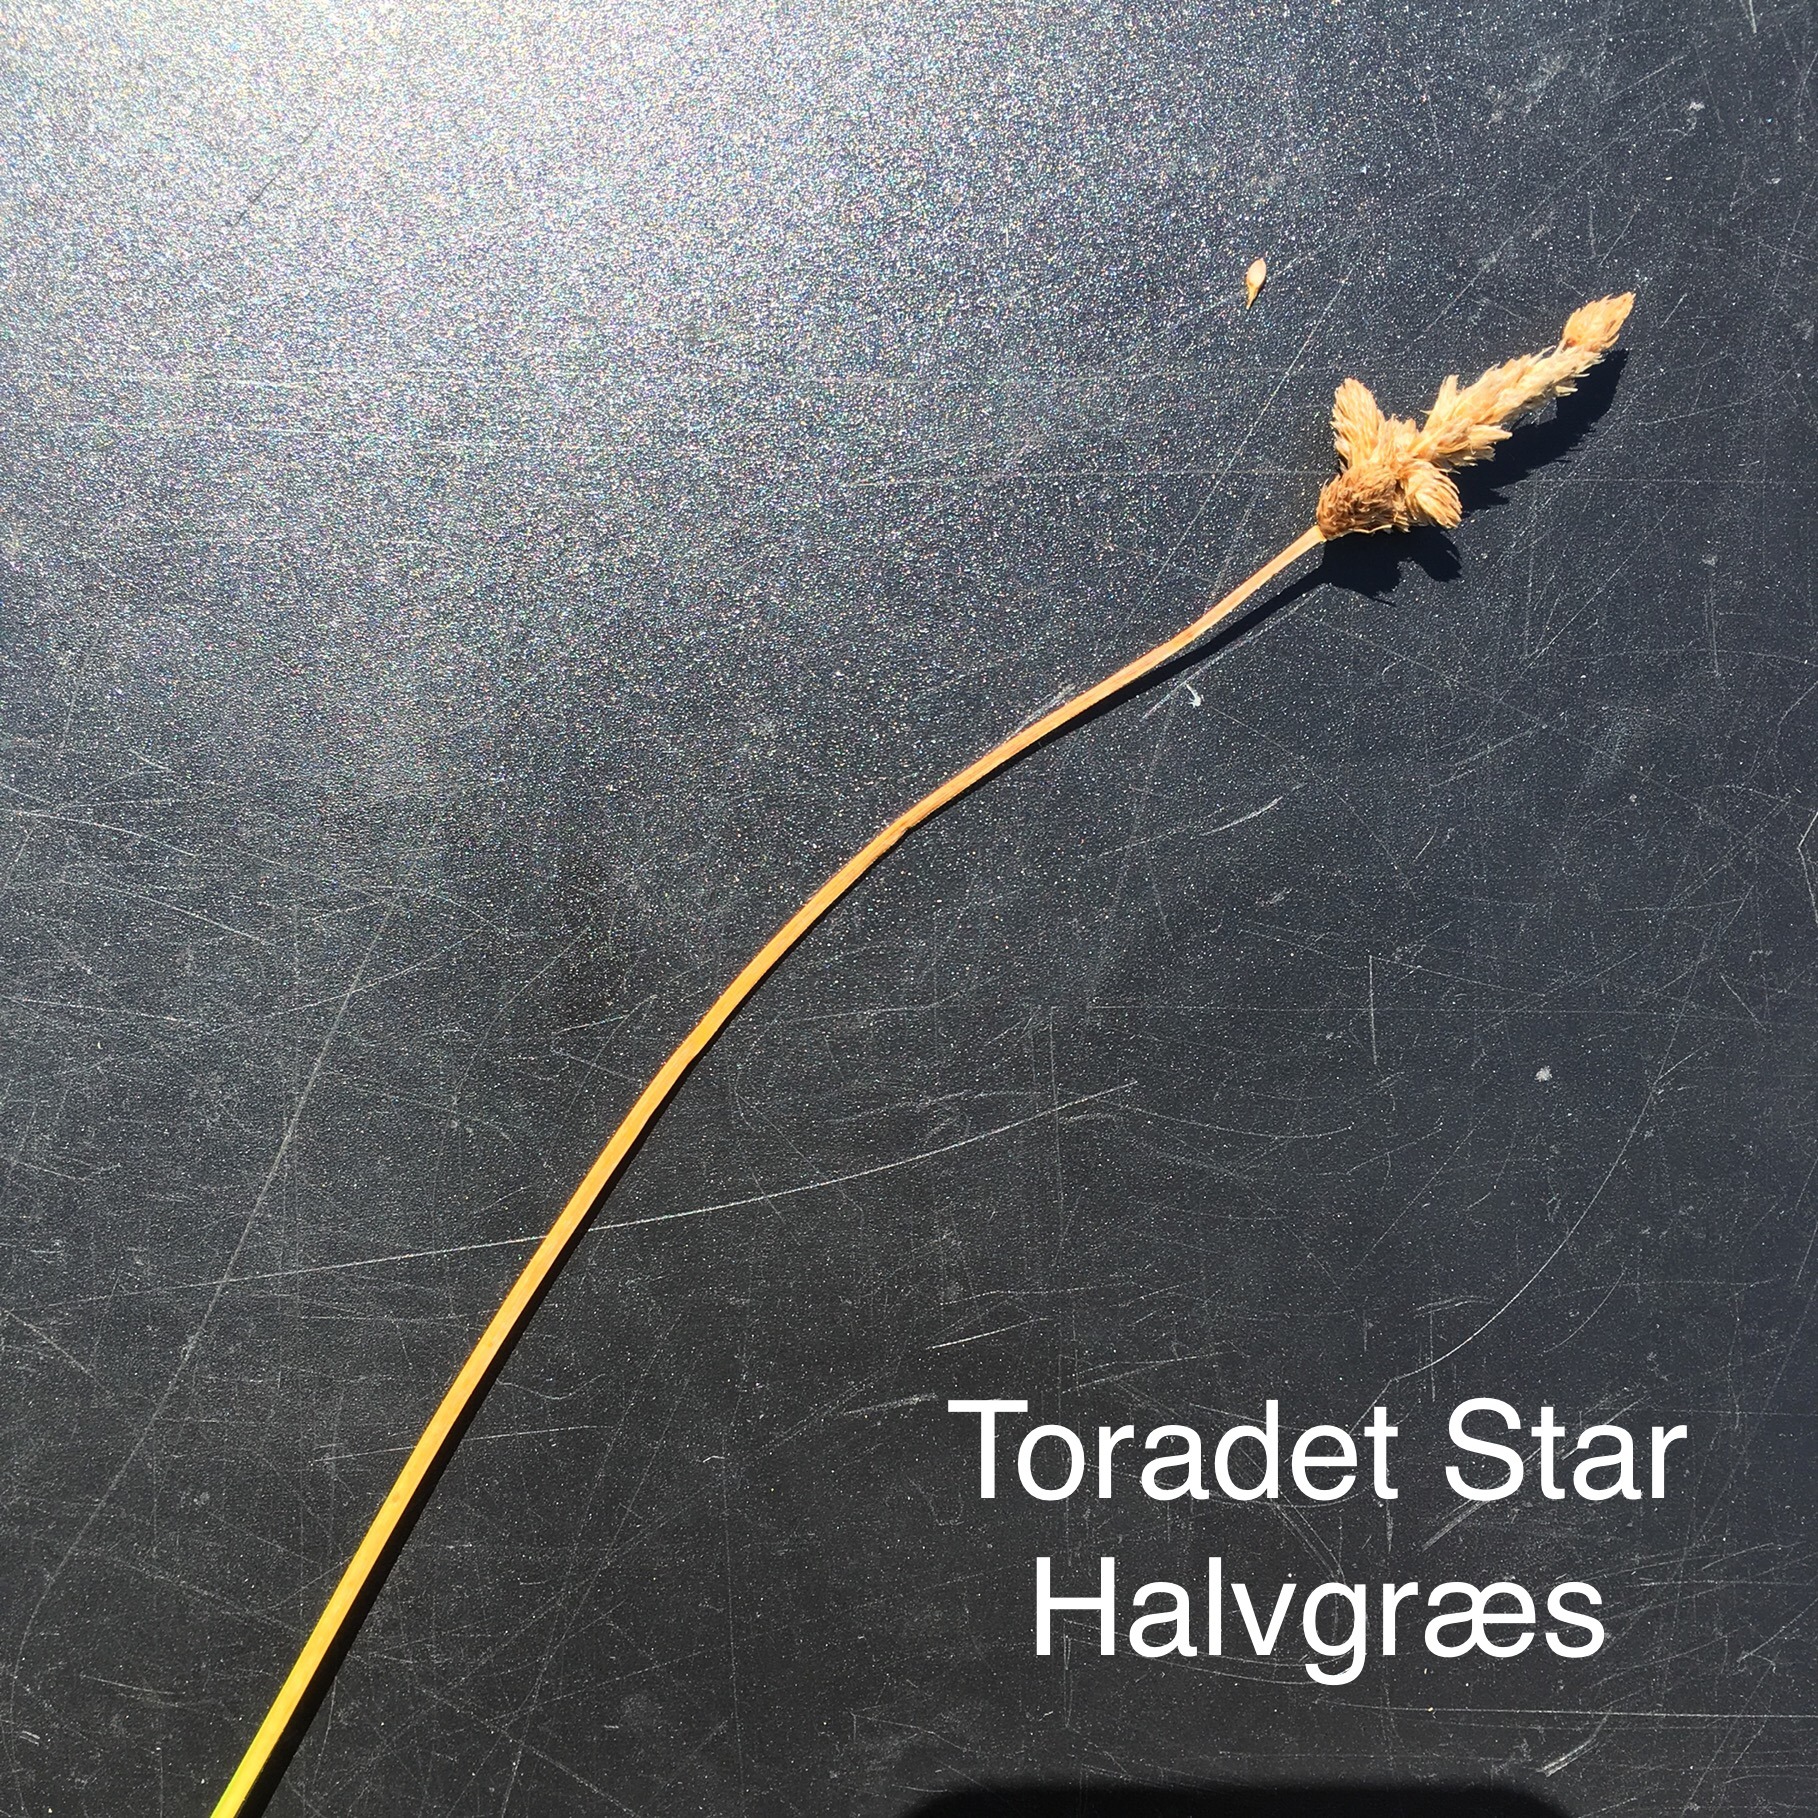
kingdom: Plantae
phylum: Tracheophyta
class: Liliopsida
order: Poales
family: Cyperaceae
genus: Carex
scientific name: Carex disticha
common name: Toradet star
